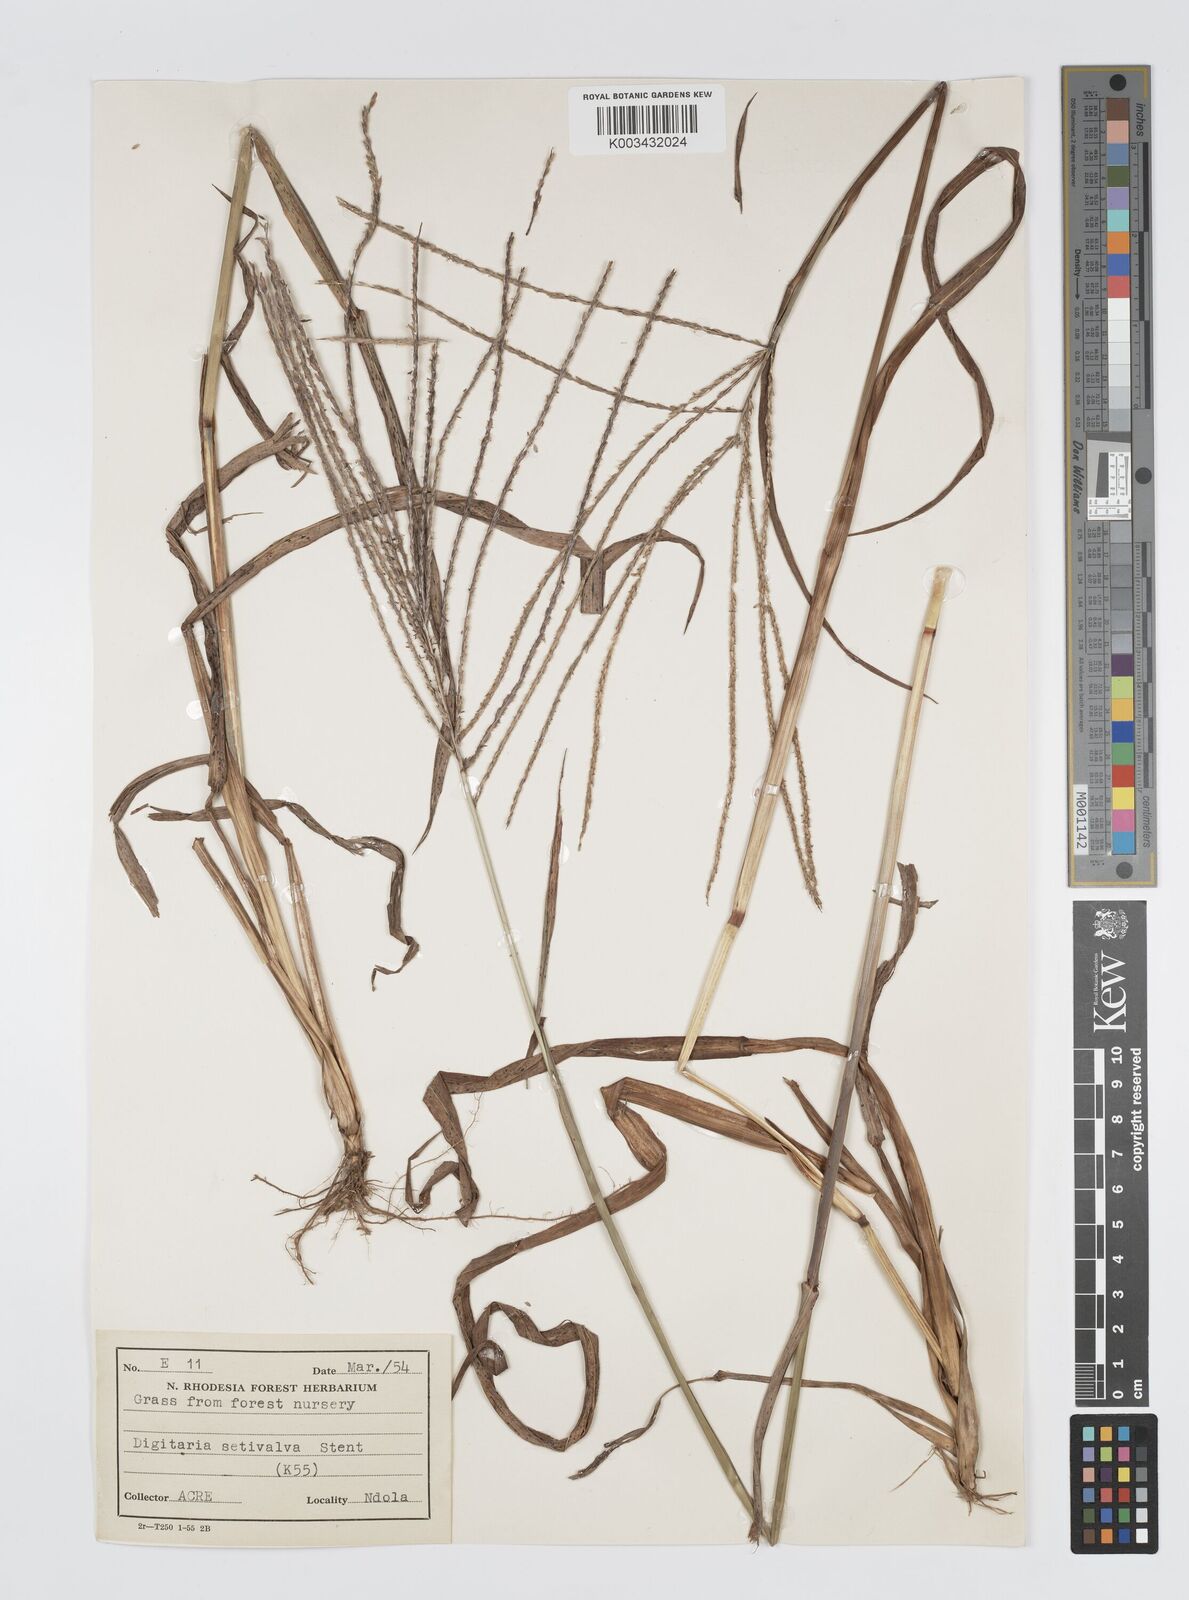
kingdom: Plantae
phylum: Tracheophyta
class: Liliopsida
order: Poales
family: Poaceae
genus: Digitaria
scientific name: Digitaria milanjiana
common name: Madagascar crabgrass
